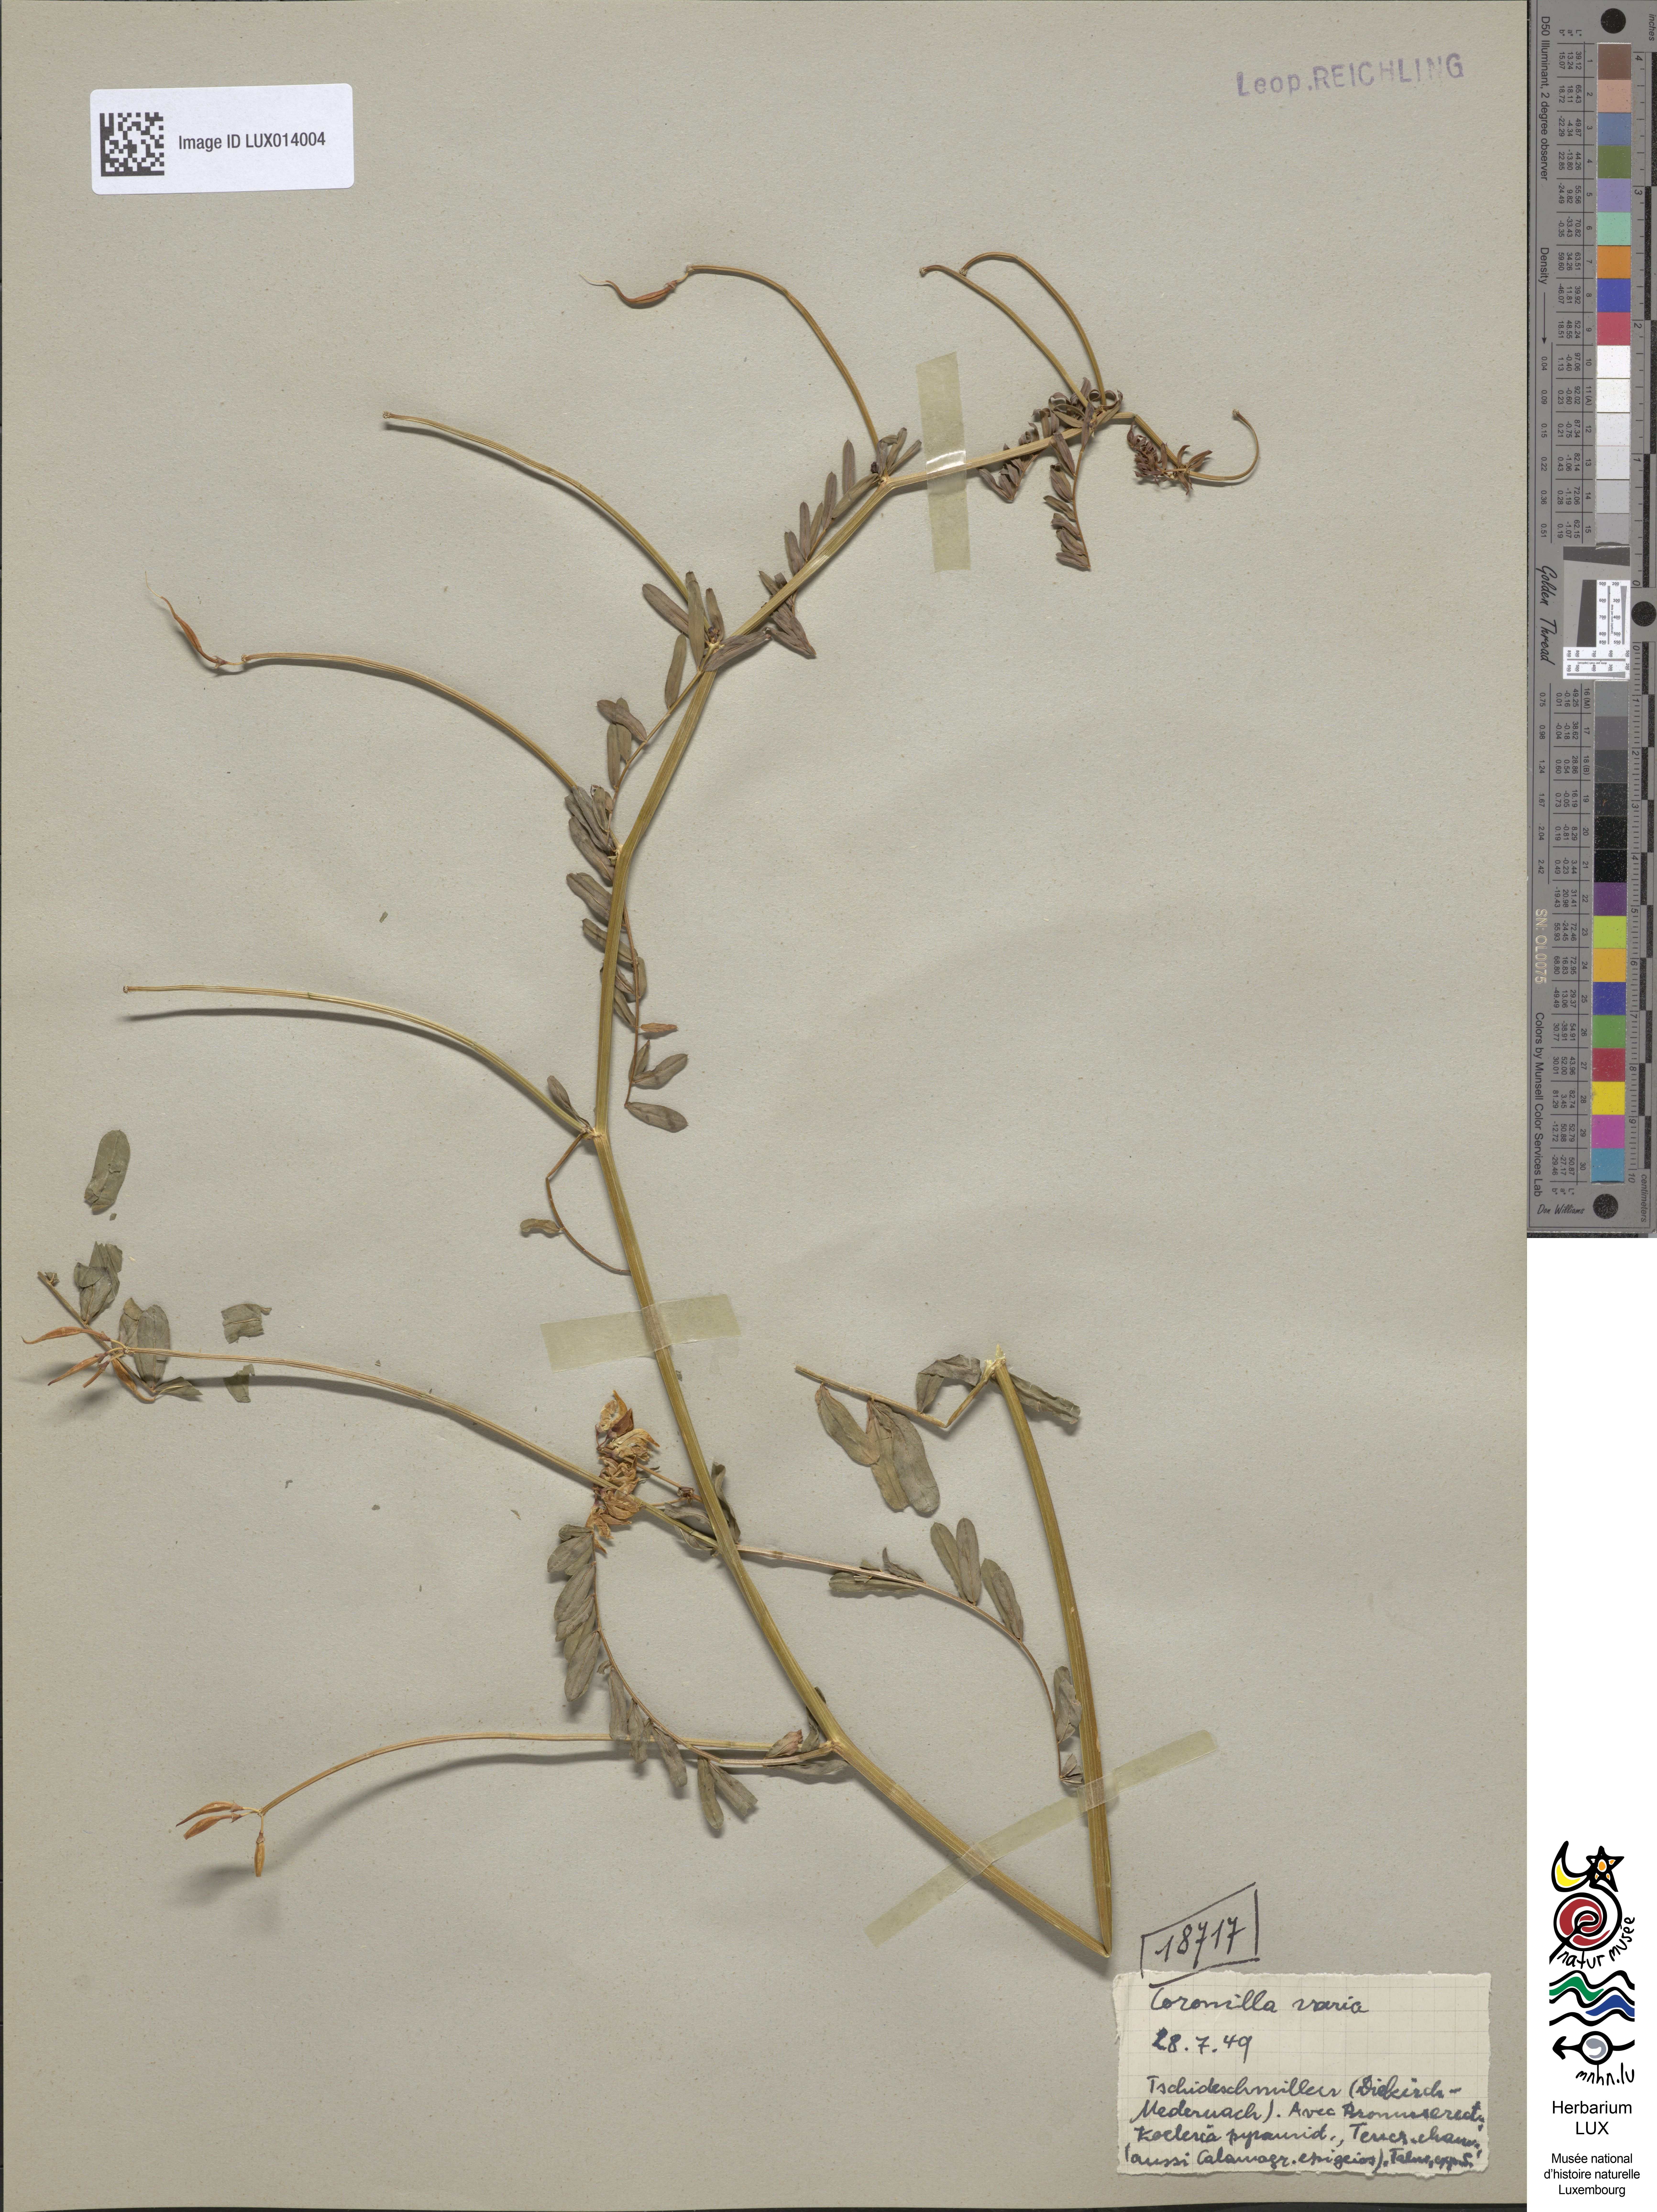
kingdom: Plantae
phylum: Tracheophyta
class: Magnoliopsida
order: Fabales
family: Fabaceae
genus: Coronilla
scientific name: Coronilla varia
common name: Crownvetch
